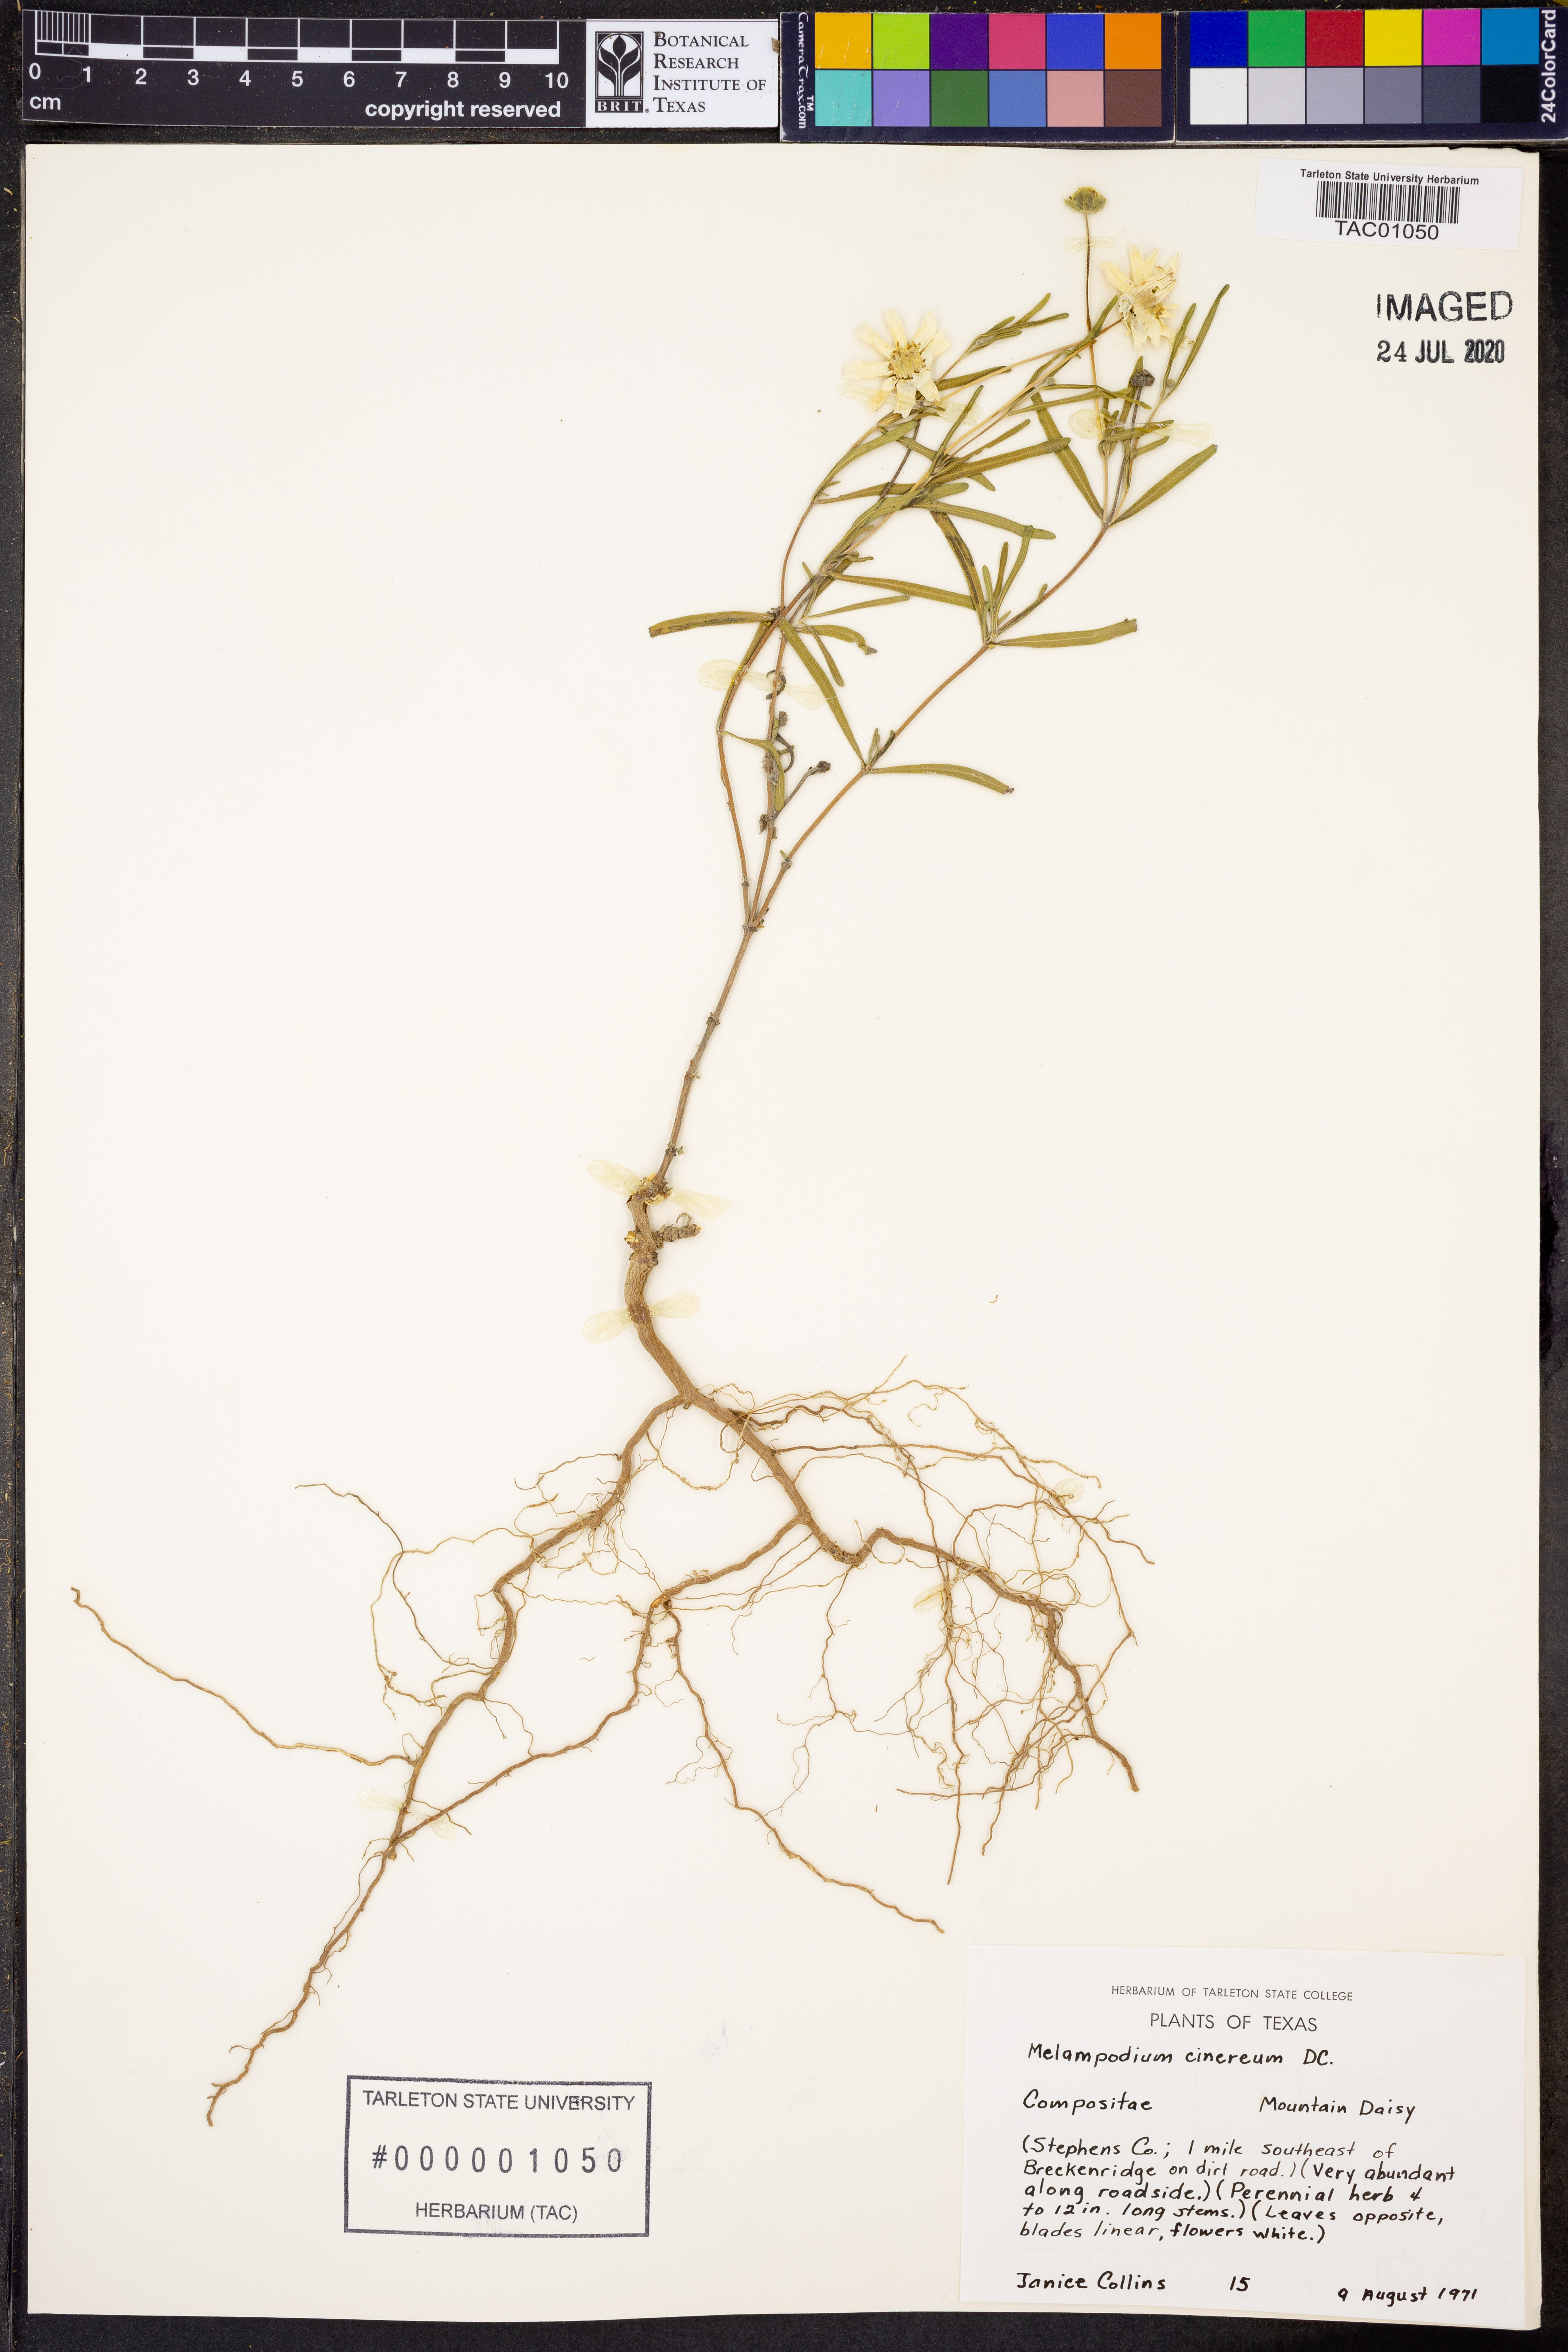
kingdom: Plantae
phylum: Tracheophyta
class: Magnoliopsida
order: Asterales
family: Asteraceae
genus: Melampodium
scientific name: Melampodium cinereum
